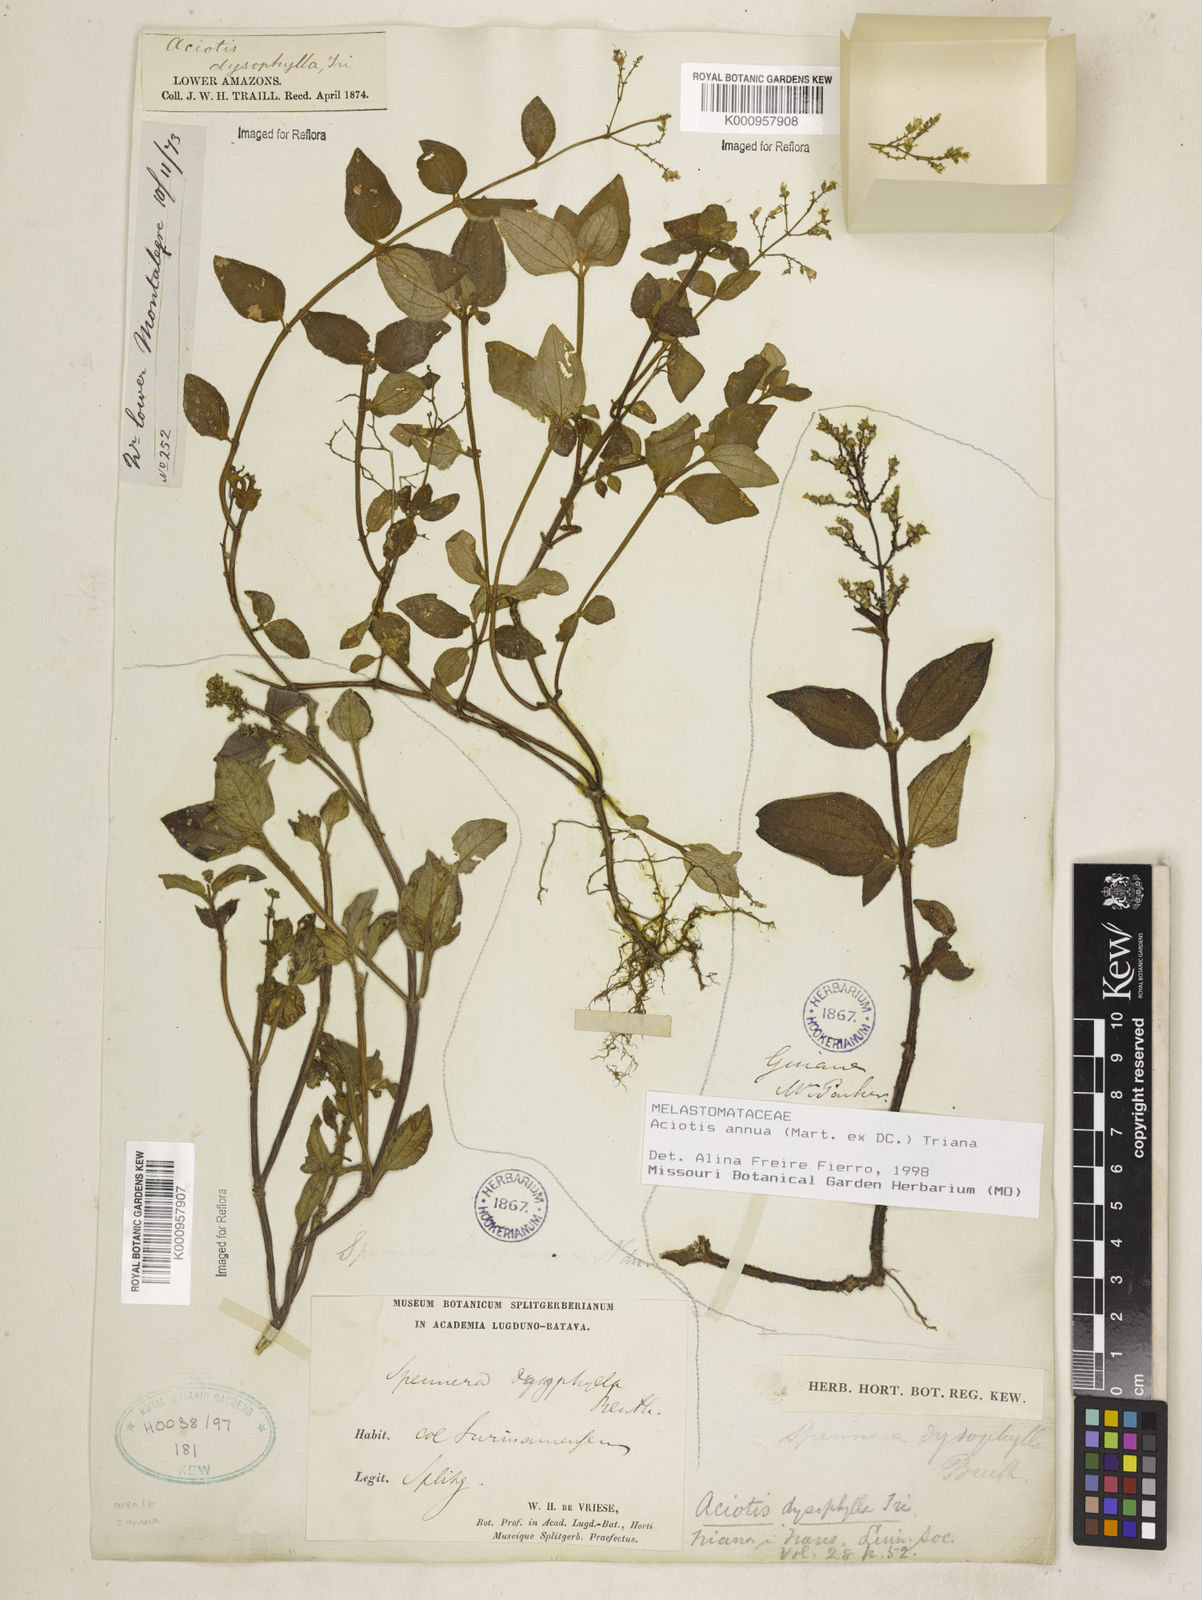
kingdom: Plantae
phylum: Tracheophyta
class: Magnoliopsida
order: Myrtales
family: Melastomataceae
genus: Aciotis
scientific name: Aciotis annua
